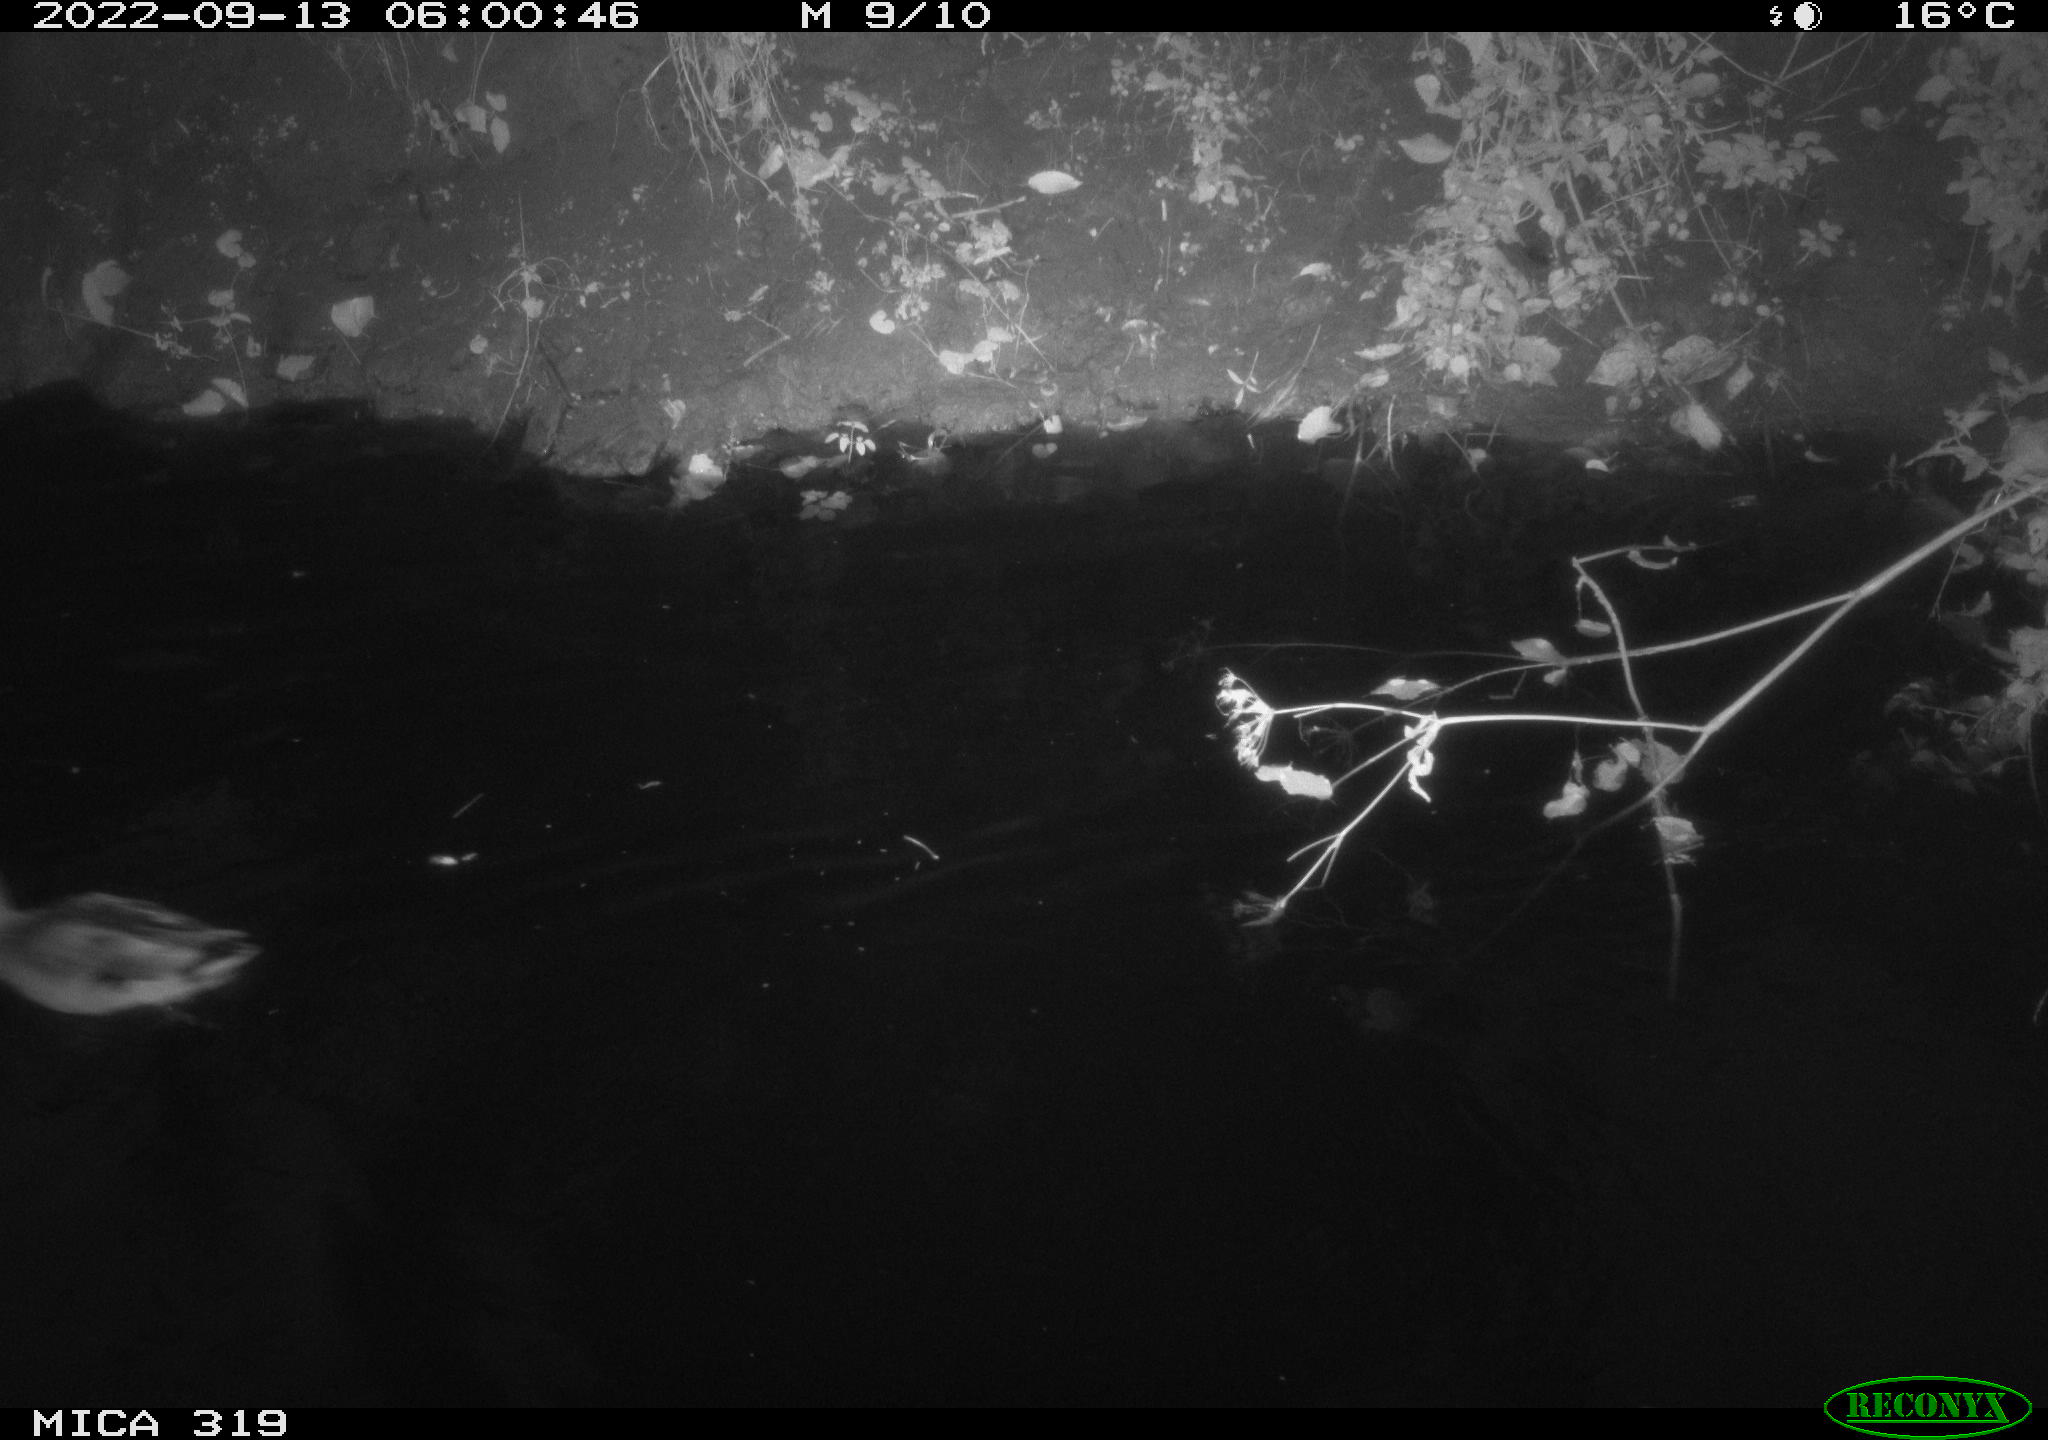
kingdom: Animalia
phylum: Chordata
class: Aves
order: Anseriformes
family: Anatidae
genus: Anas
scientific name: Anas
